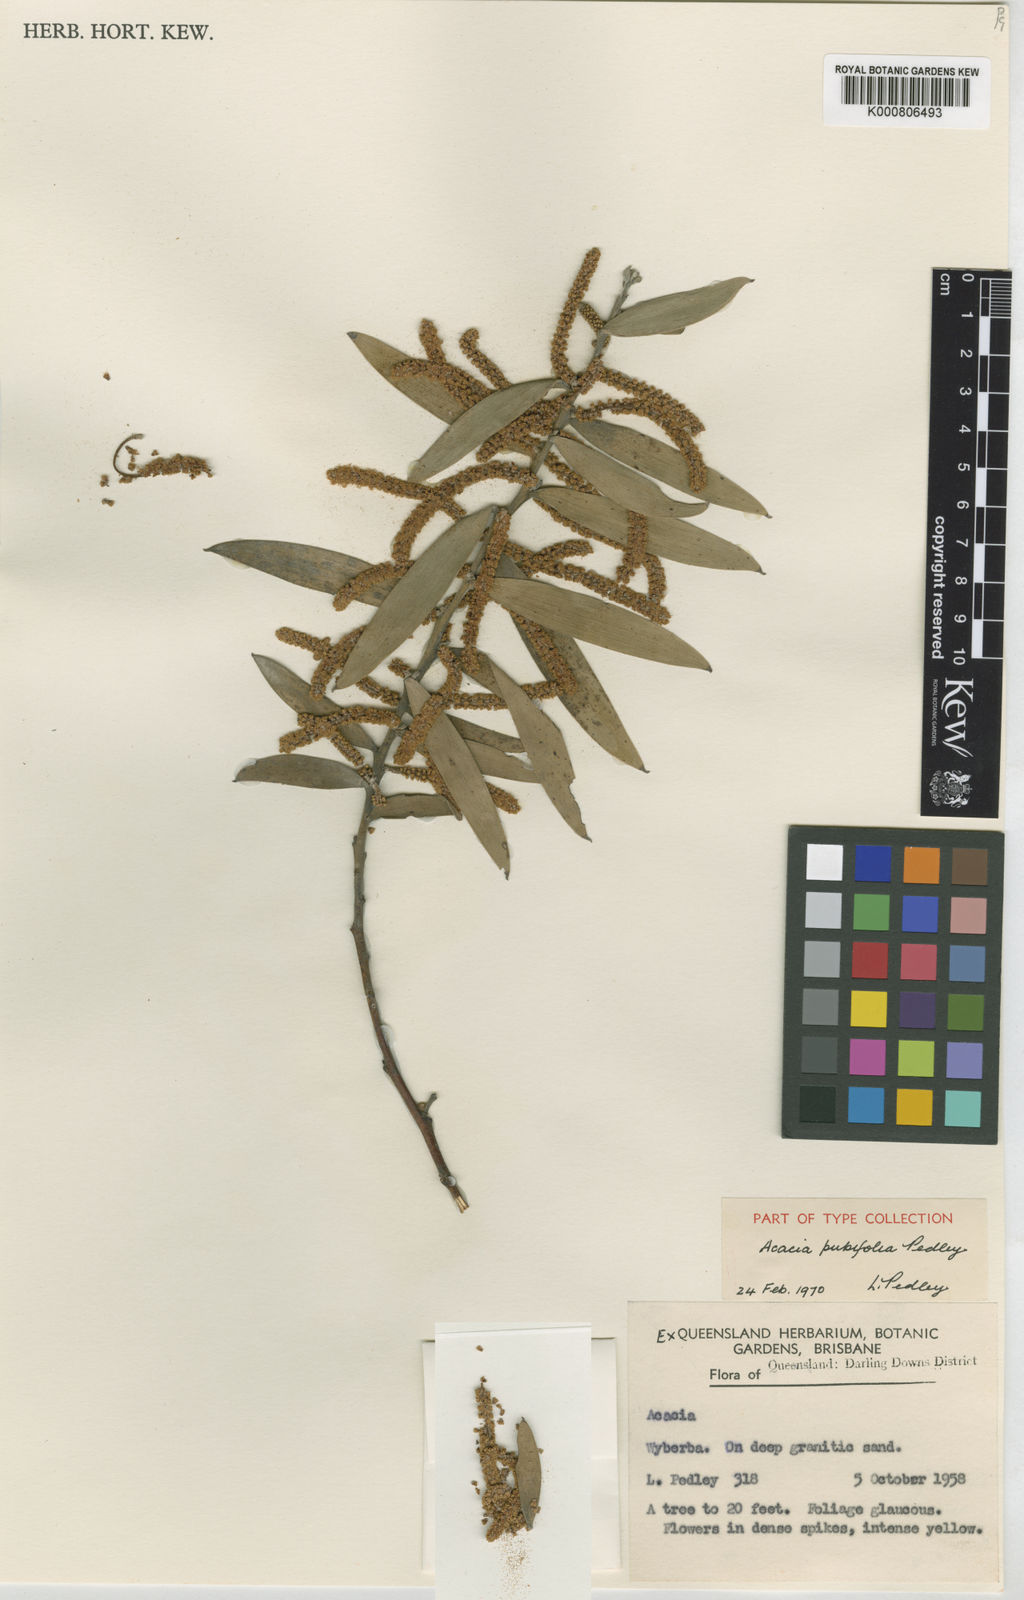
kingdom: Plantae
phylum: Tracheophyta
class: Magnoliopsida
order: Fabales
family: Fabaceae
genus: Acacia
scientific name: Acacia pubifolia
